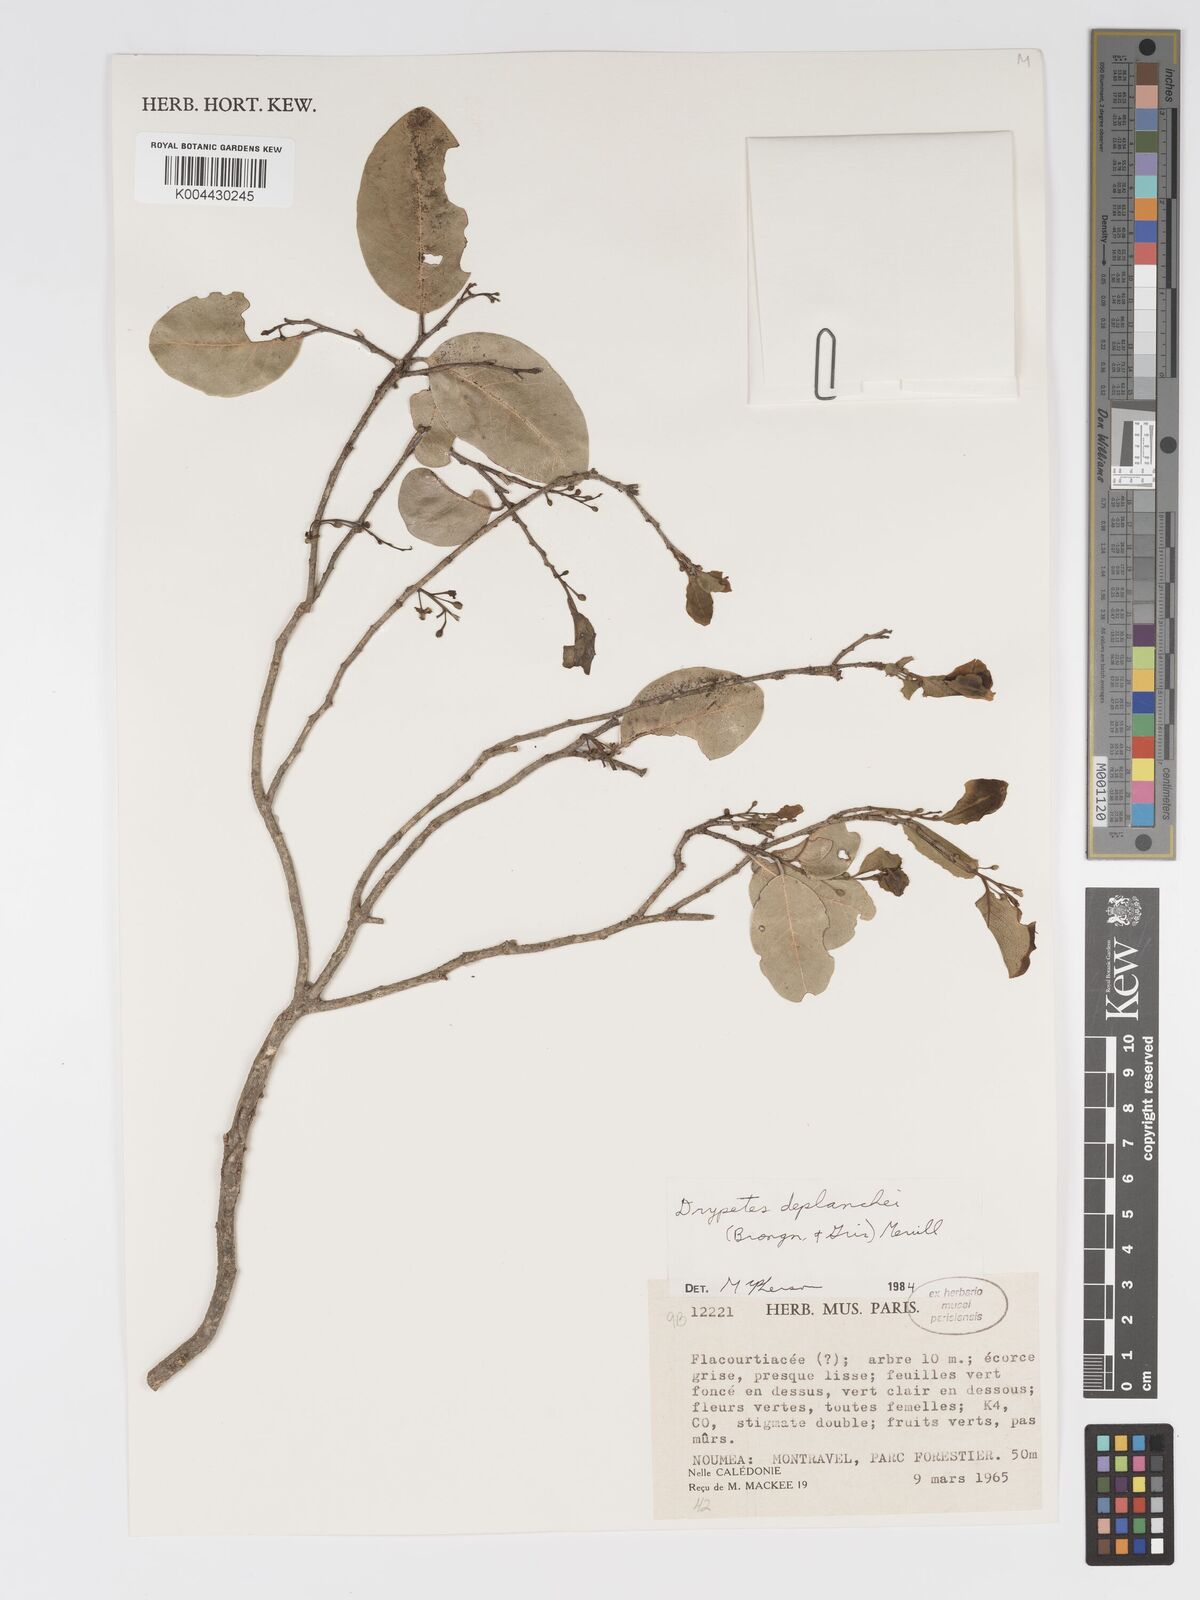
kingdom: Plantae
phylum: Tracheophyta
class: Magnoliopsida
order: Malpighiales
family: Putranjivaceae
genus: Drypetes
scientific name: Drypetes deplanchei
